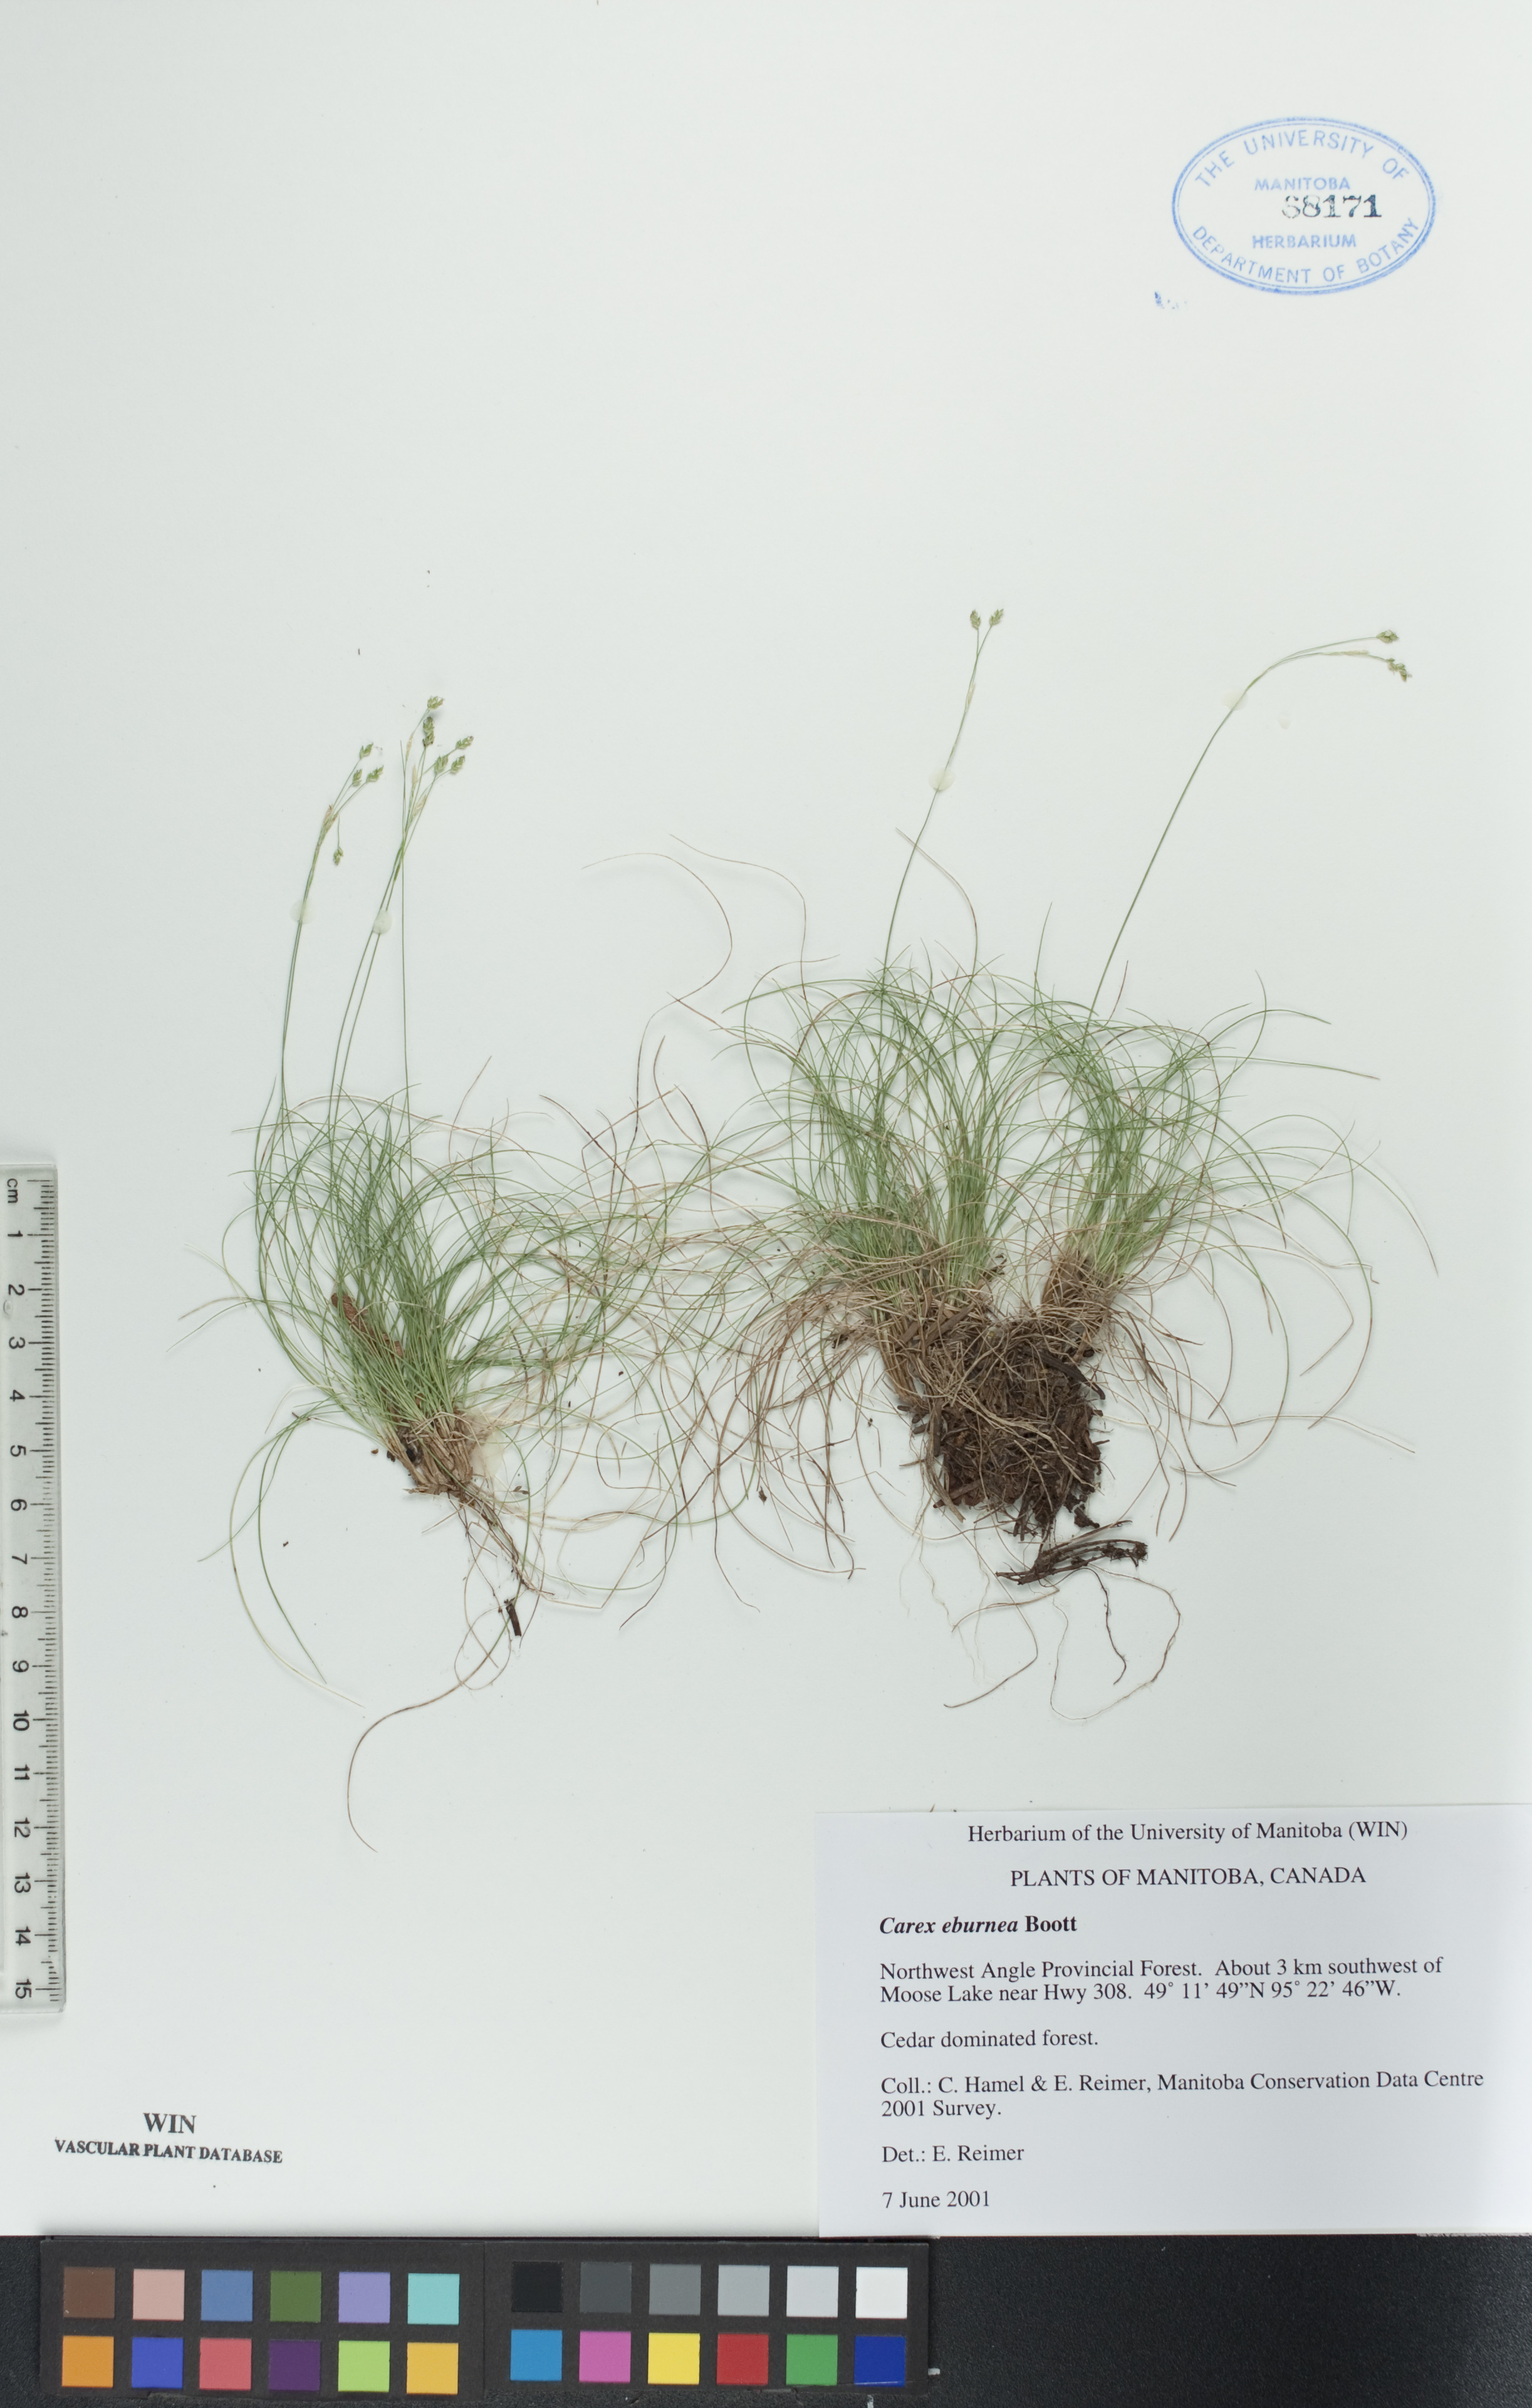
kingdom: Plantae
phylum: Tracheophyta
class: Liliopsida
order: Poales
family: Cyperaceae
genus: Carex
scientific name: Carex eburnea
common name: Bristle-leaved sedge
